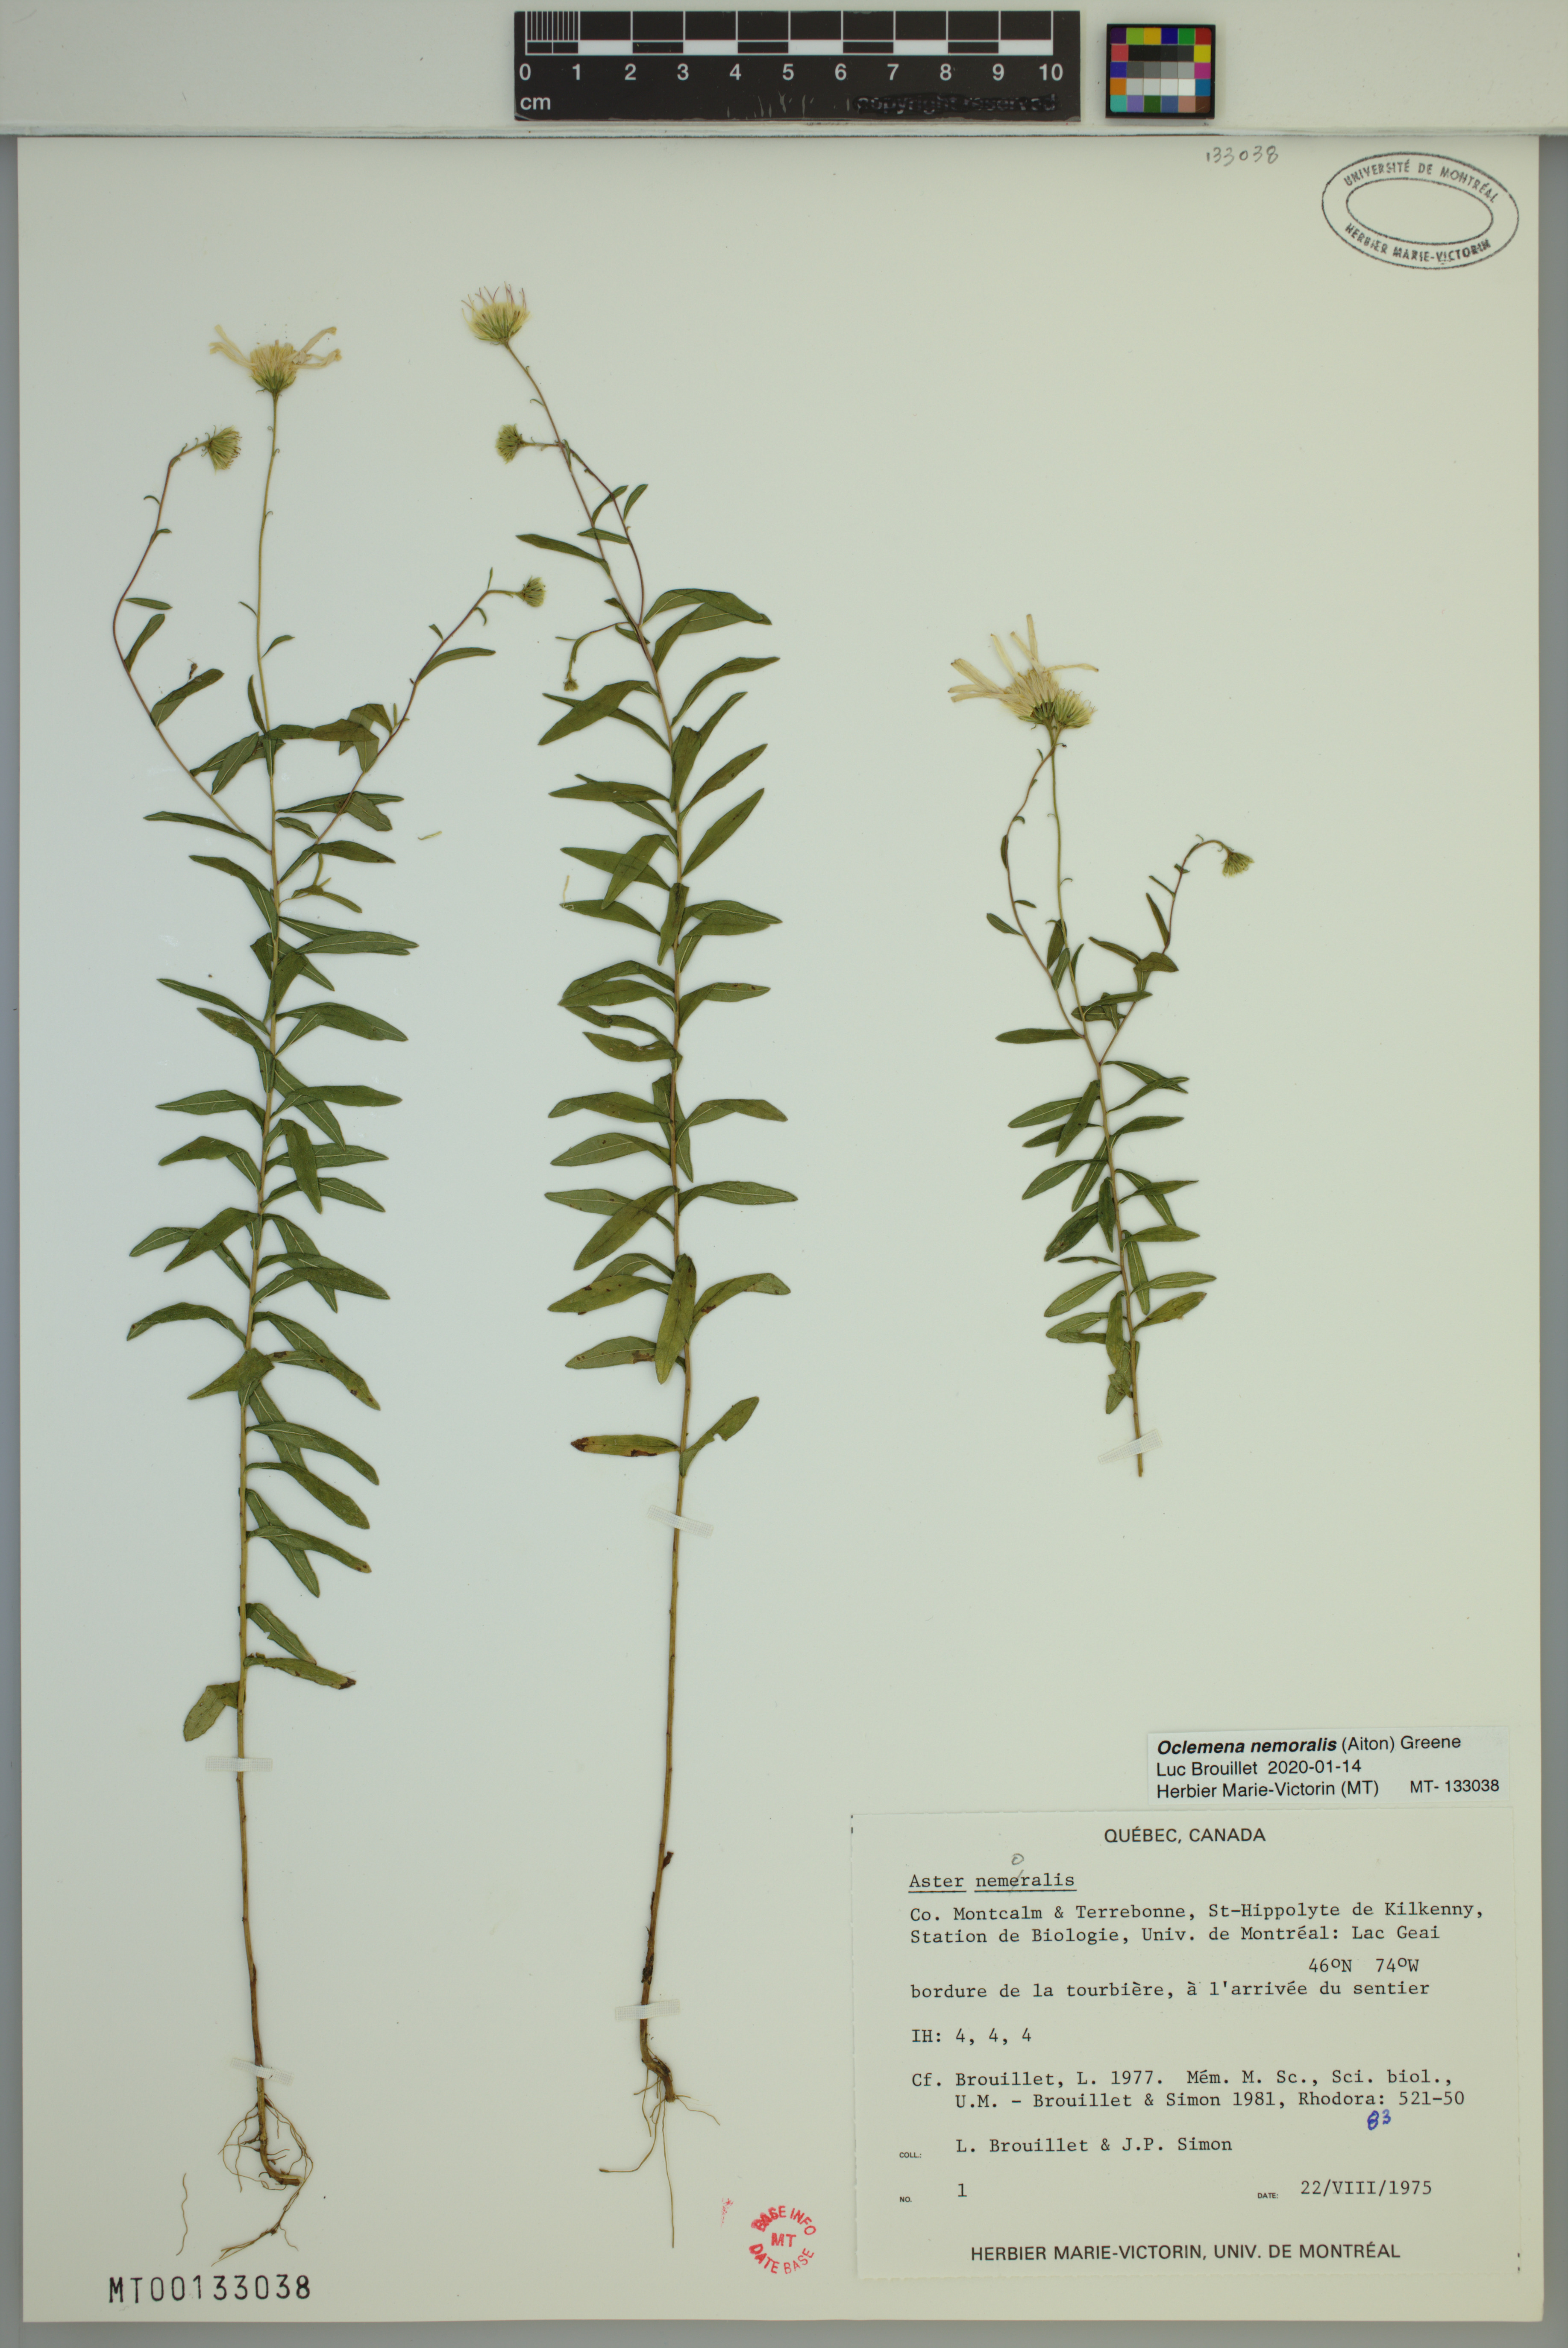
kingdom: Plantae
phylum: Tracheophyta
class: Magnoliopsida
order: Asterales
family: Asteraceae
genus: Oclemena
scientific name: Oclemena nemoralis
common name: Bog aster
